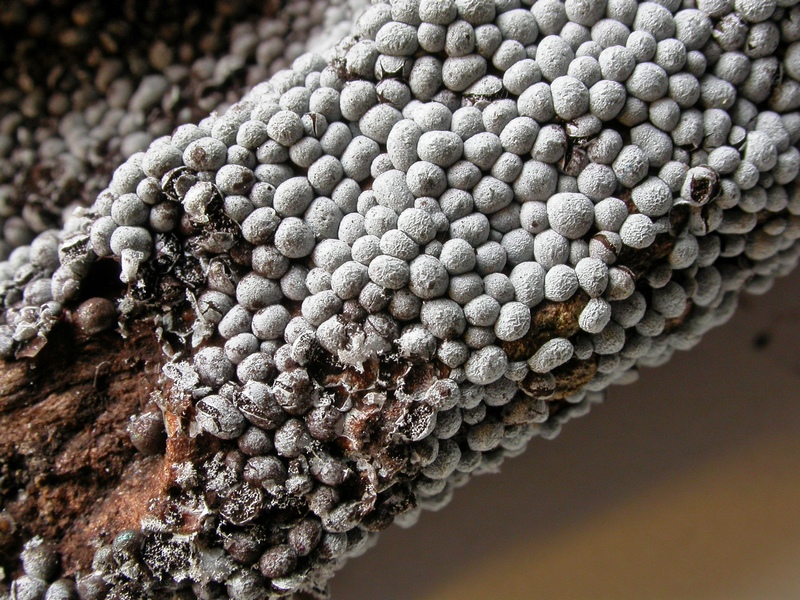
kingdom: Protozoa
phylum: Mycetozoa
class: Myxomycetes
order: Physarales
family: Physaraceae
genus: Badhamia
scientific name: Badhamia panicea
